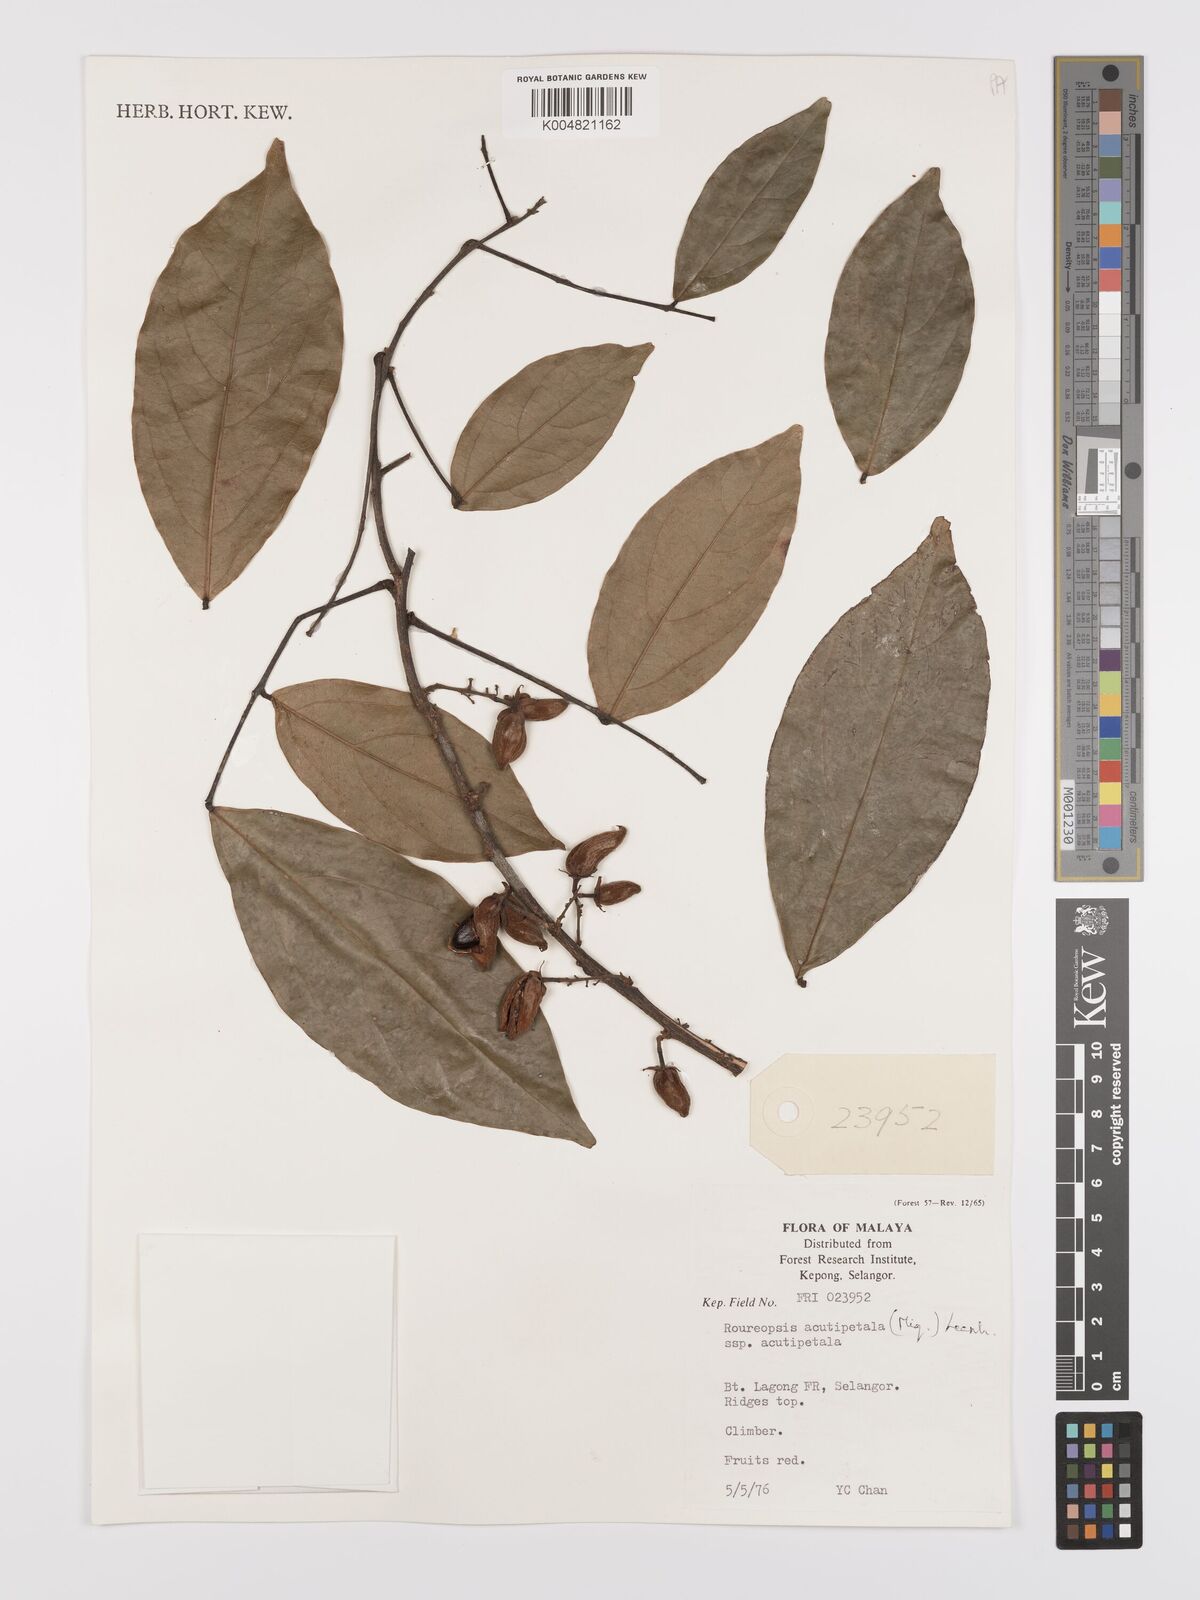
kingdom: Plantae
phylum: Tracheophyta
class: Magnoliopsida
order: Oxalidales
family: Connaraceae
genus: Rourea
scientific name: Rourea acutipetala
